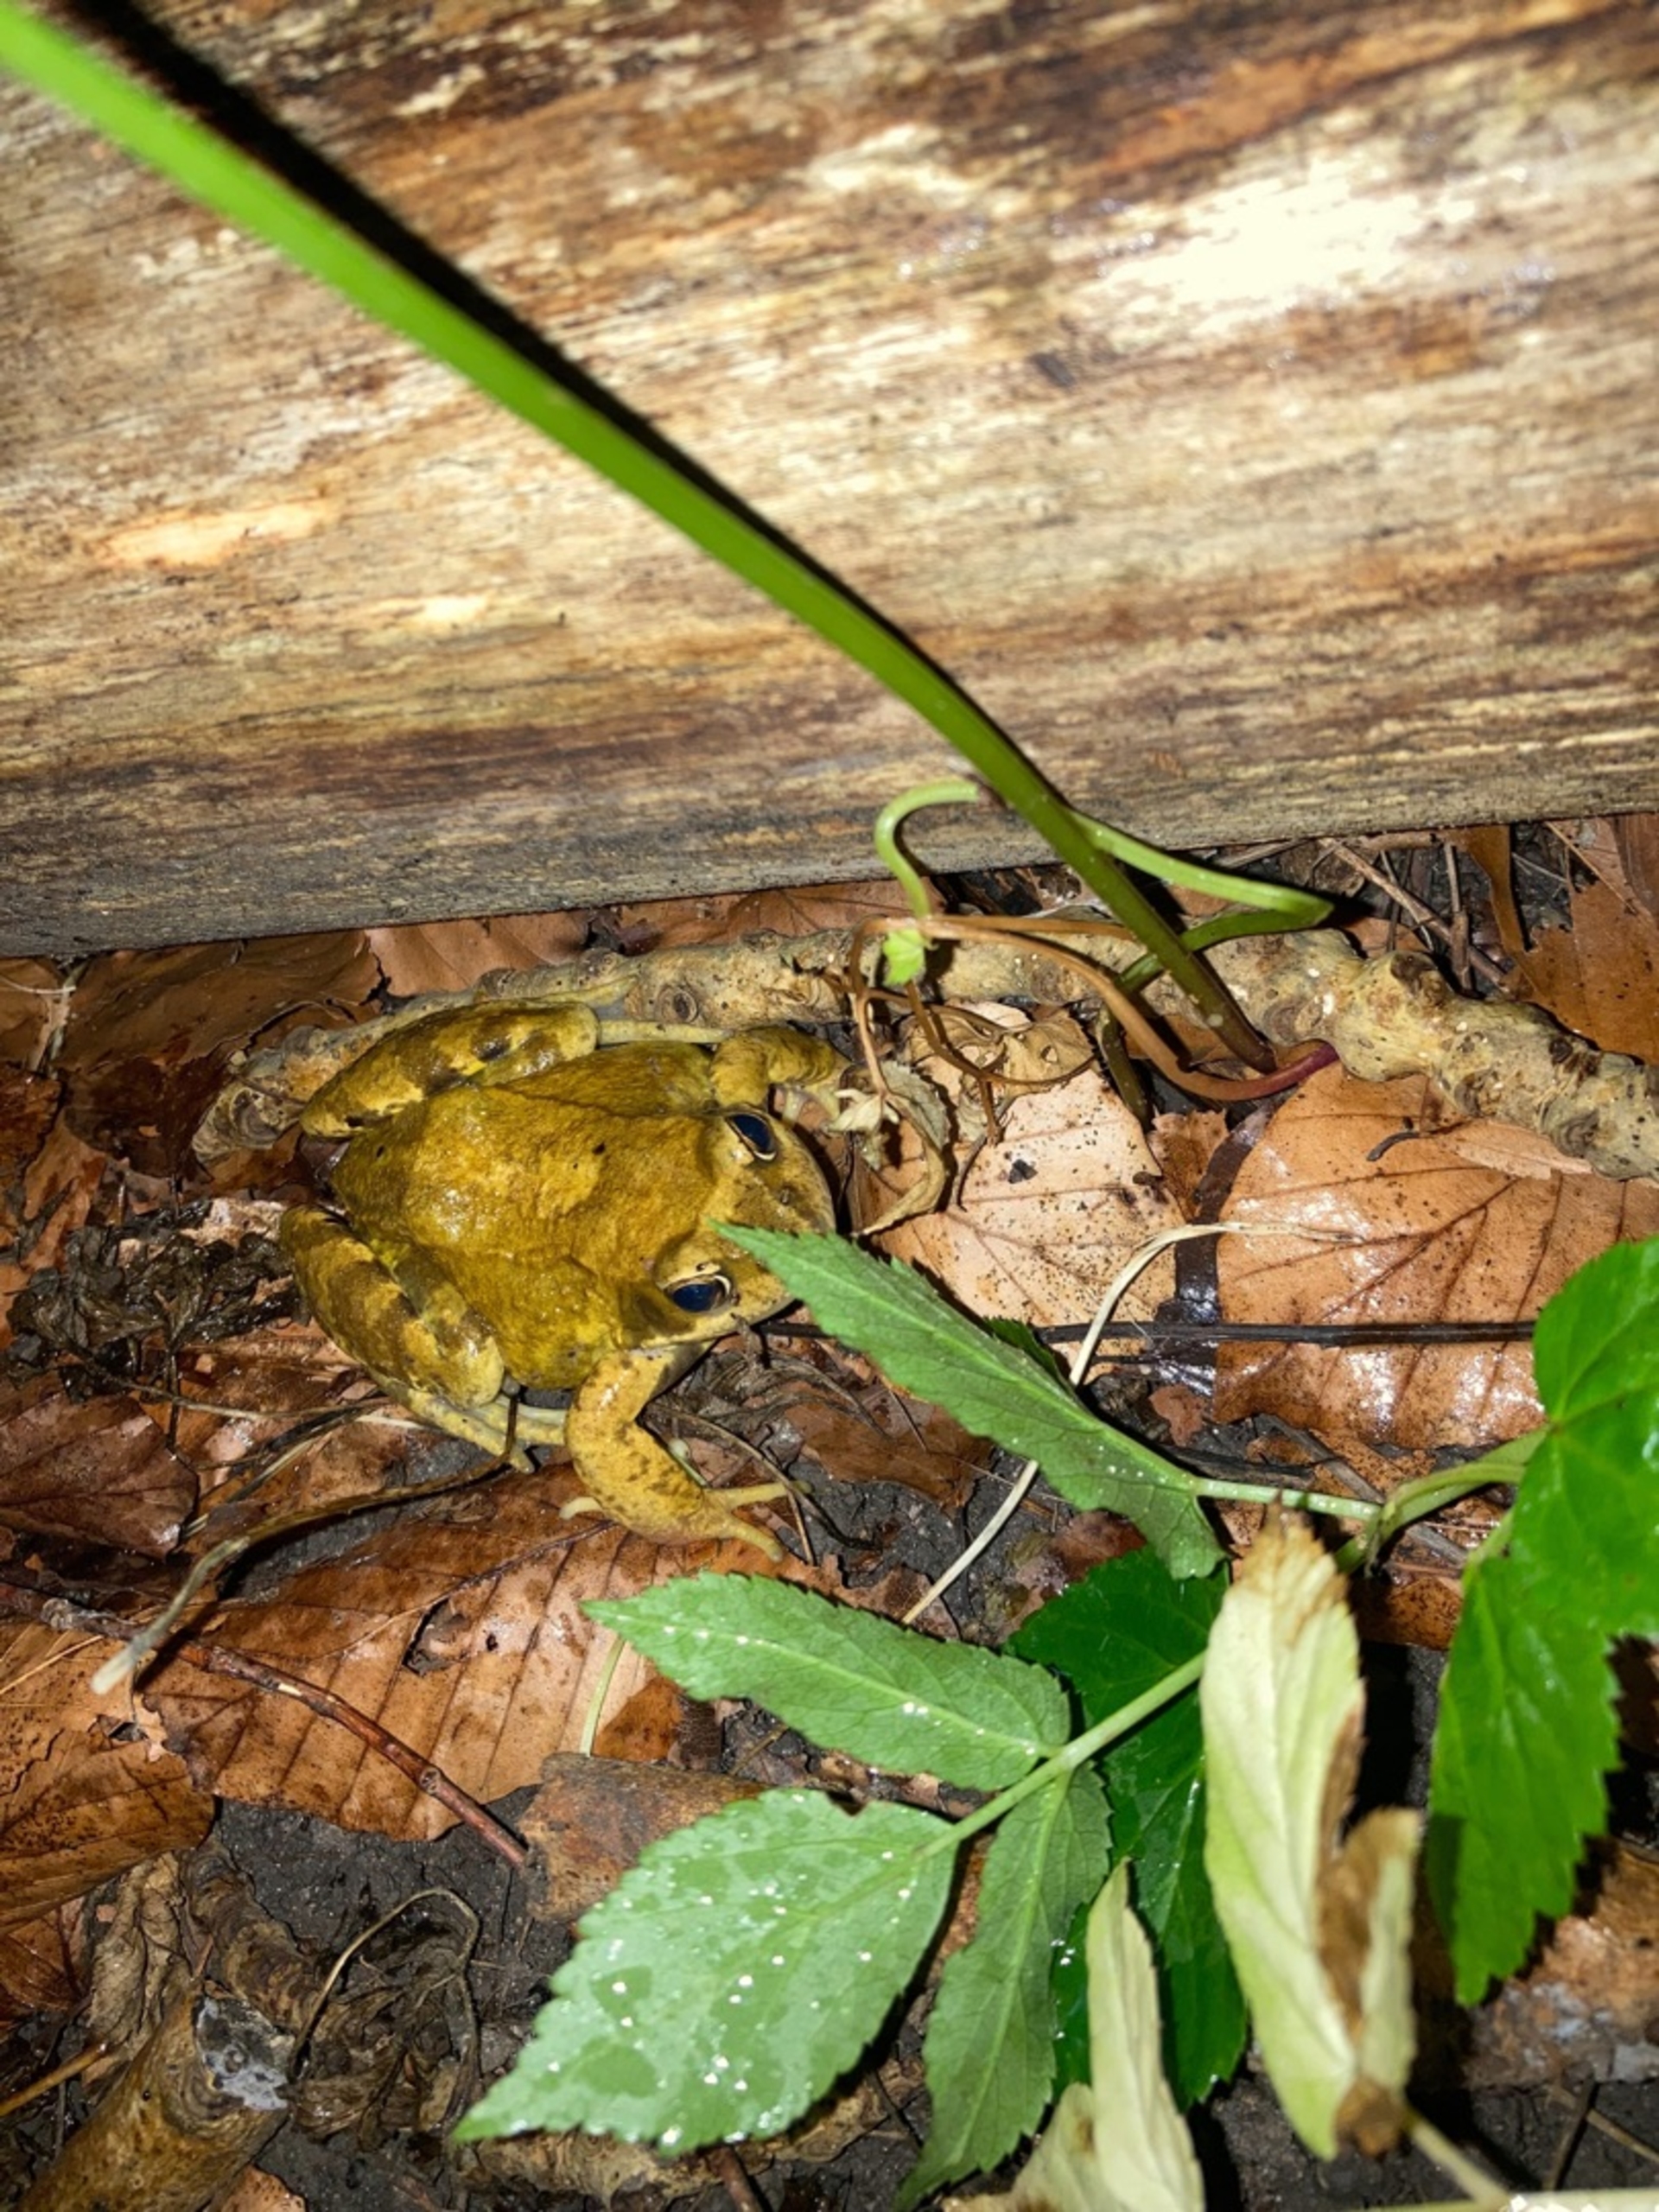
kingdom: Animalia
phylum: Chordata
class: Amphibia
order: Anura
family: Ranidae
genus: Rana
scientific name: Rana temporaria
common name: Butsnudet frø
